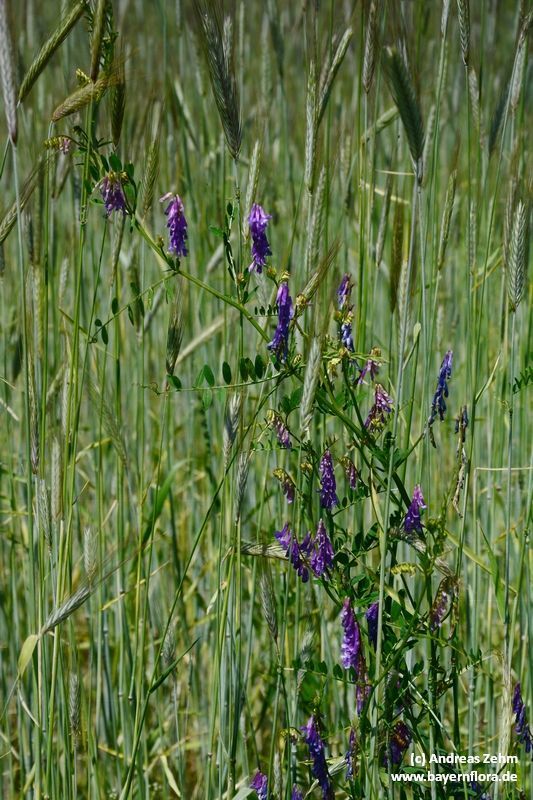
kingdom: Plantae
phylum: Tracheophyta
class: Magnoliopsida
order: Fabales
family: Fabaceae
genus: Vicia
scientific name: Vicia cracca
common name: Bird vetch
